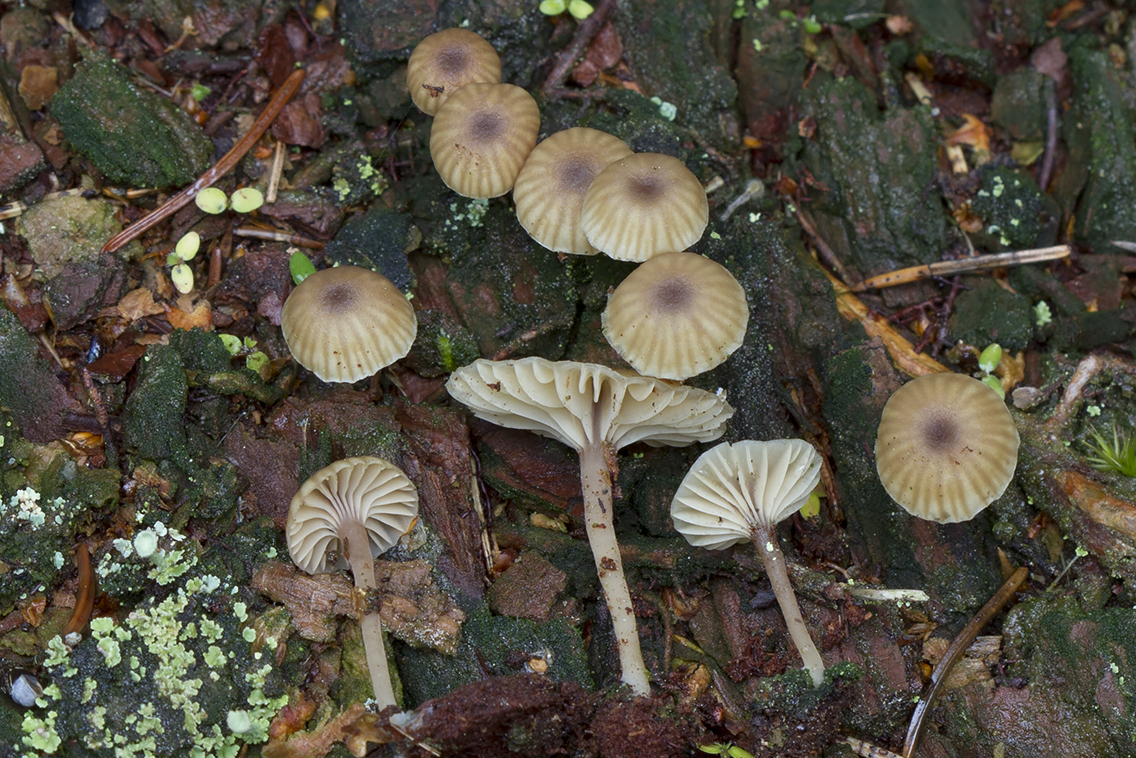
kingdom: Fungi
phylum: Basidiomycota
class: Agaricomycetes
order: Agaricales
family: Hygrophoraceae
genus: Lichenomphalia
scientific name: Lichenomphalia umbellifera
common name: tørve-lavhat
